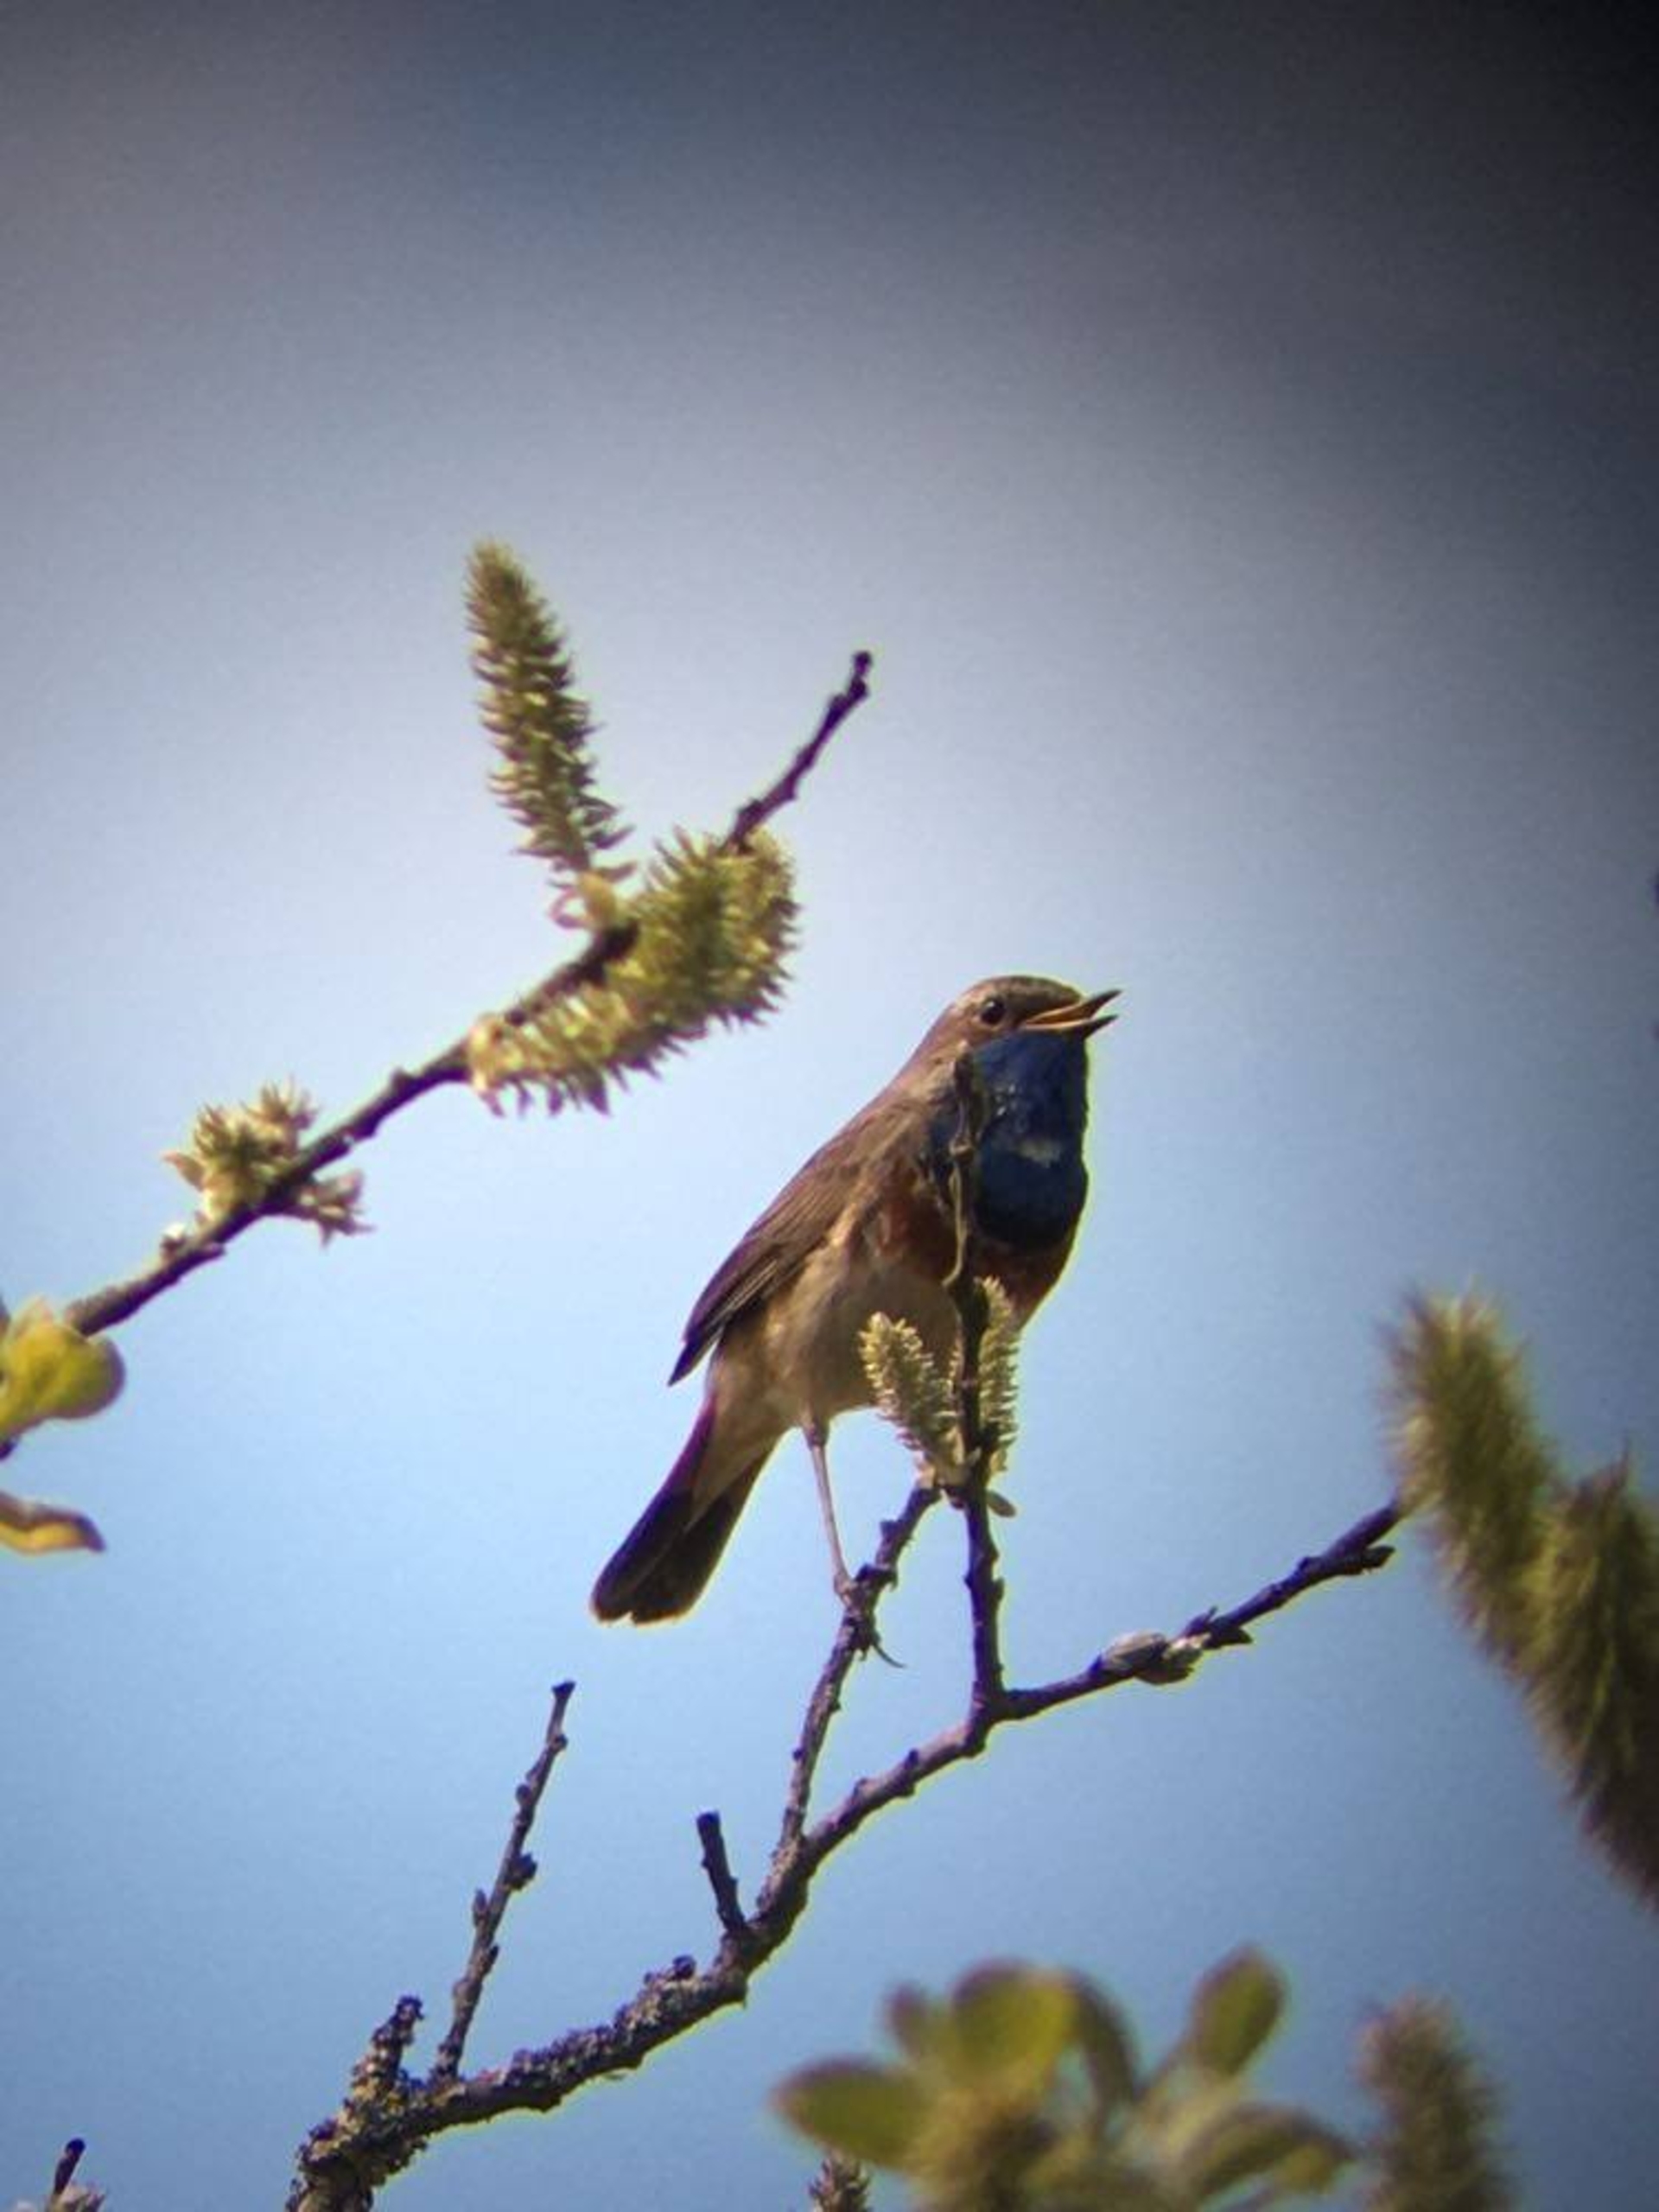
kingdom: Animalia
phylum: Chordata
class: Aves
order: Passeriformes
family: Muscicapidae
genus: Luscinia
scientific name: Luscinia svecica
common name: Blåhals
